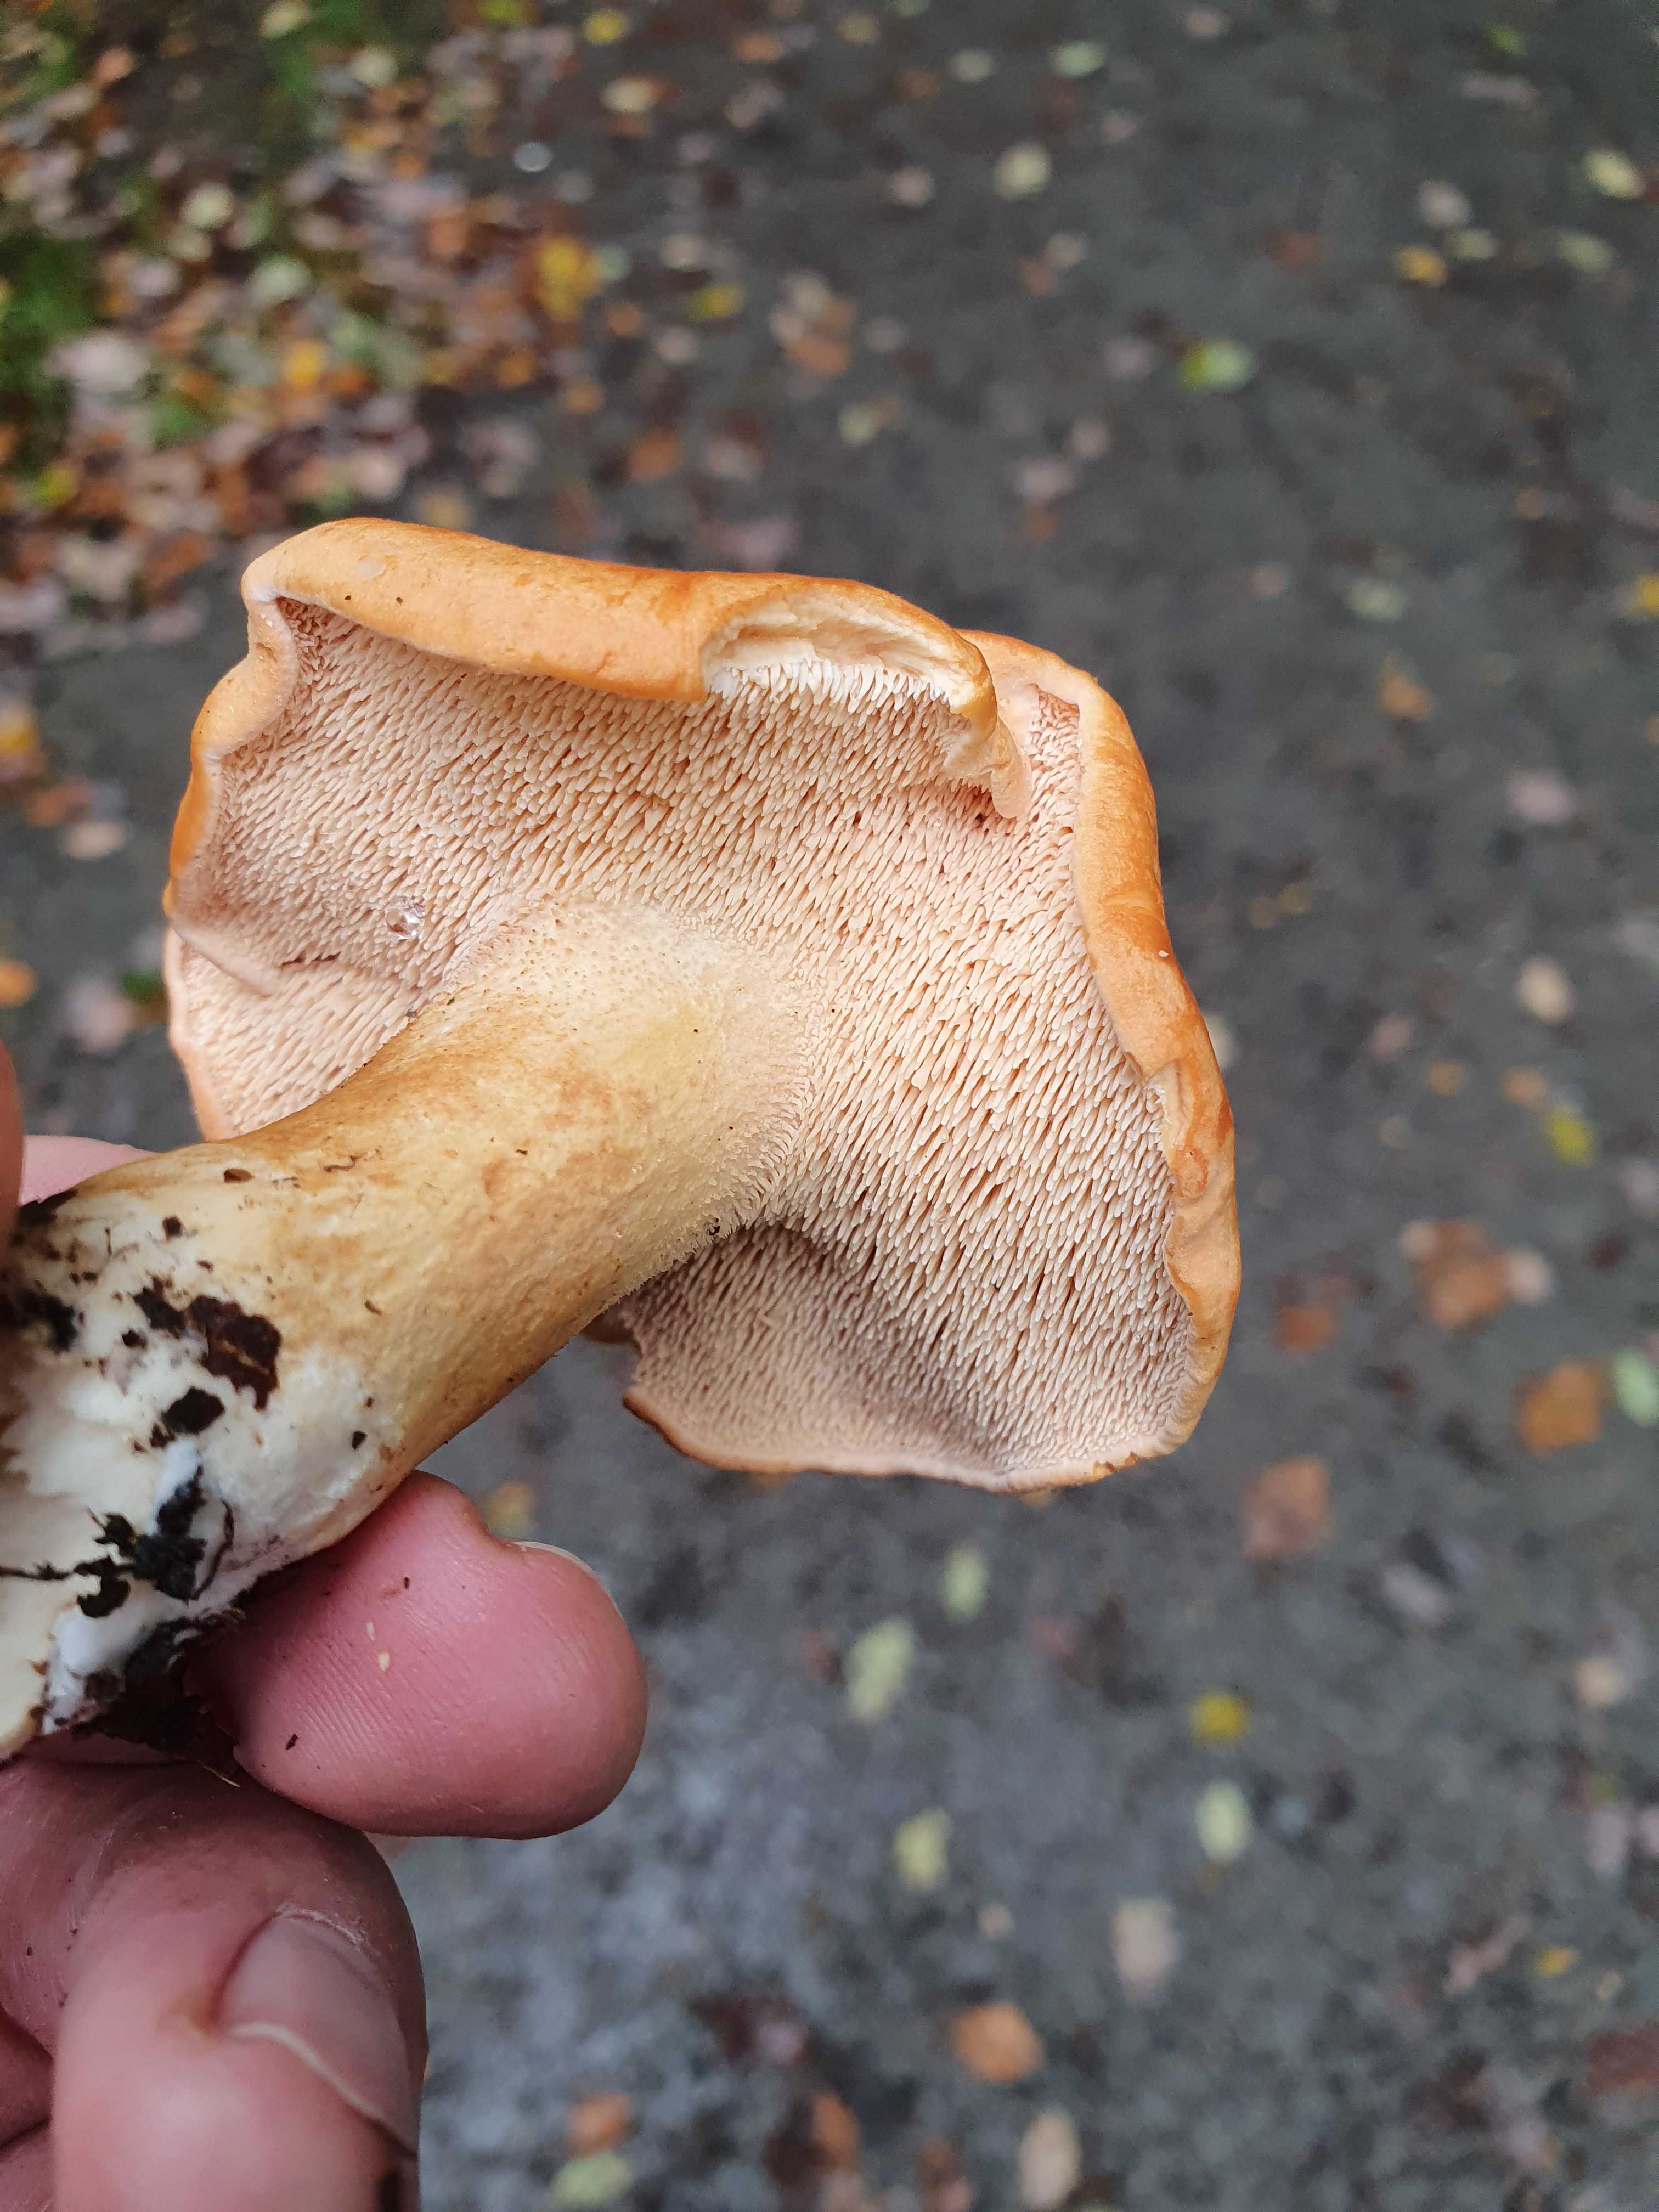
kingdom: Fungi
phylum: Basidiomycota
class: Agaricomycetes
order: Cantharellales
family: Hydnaceae
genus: Hydnum
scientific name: Hydnum
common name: pigsvamp
